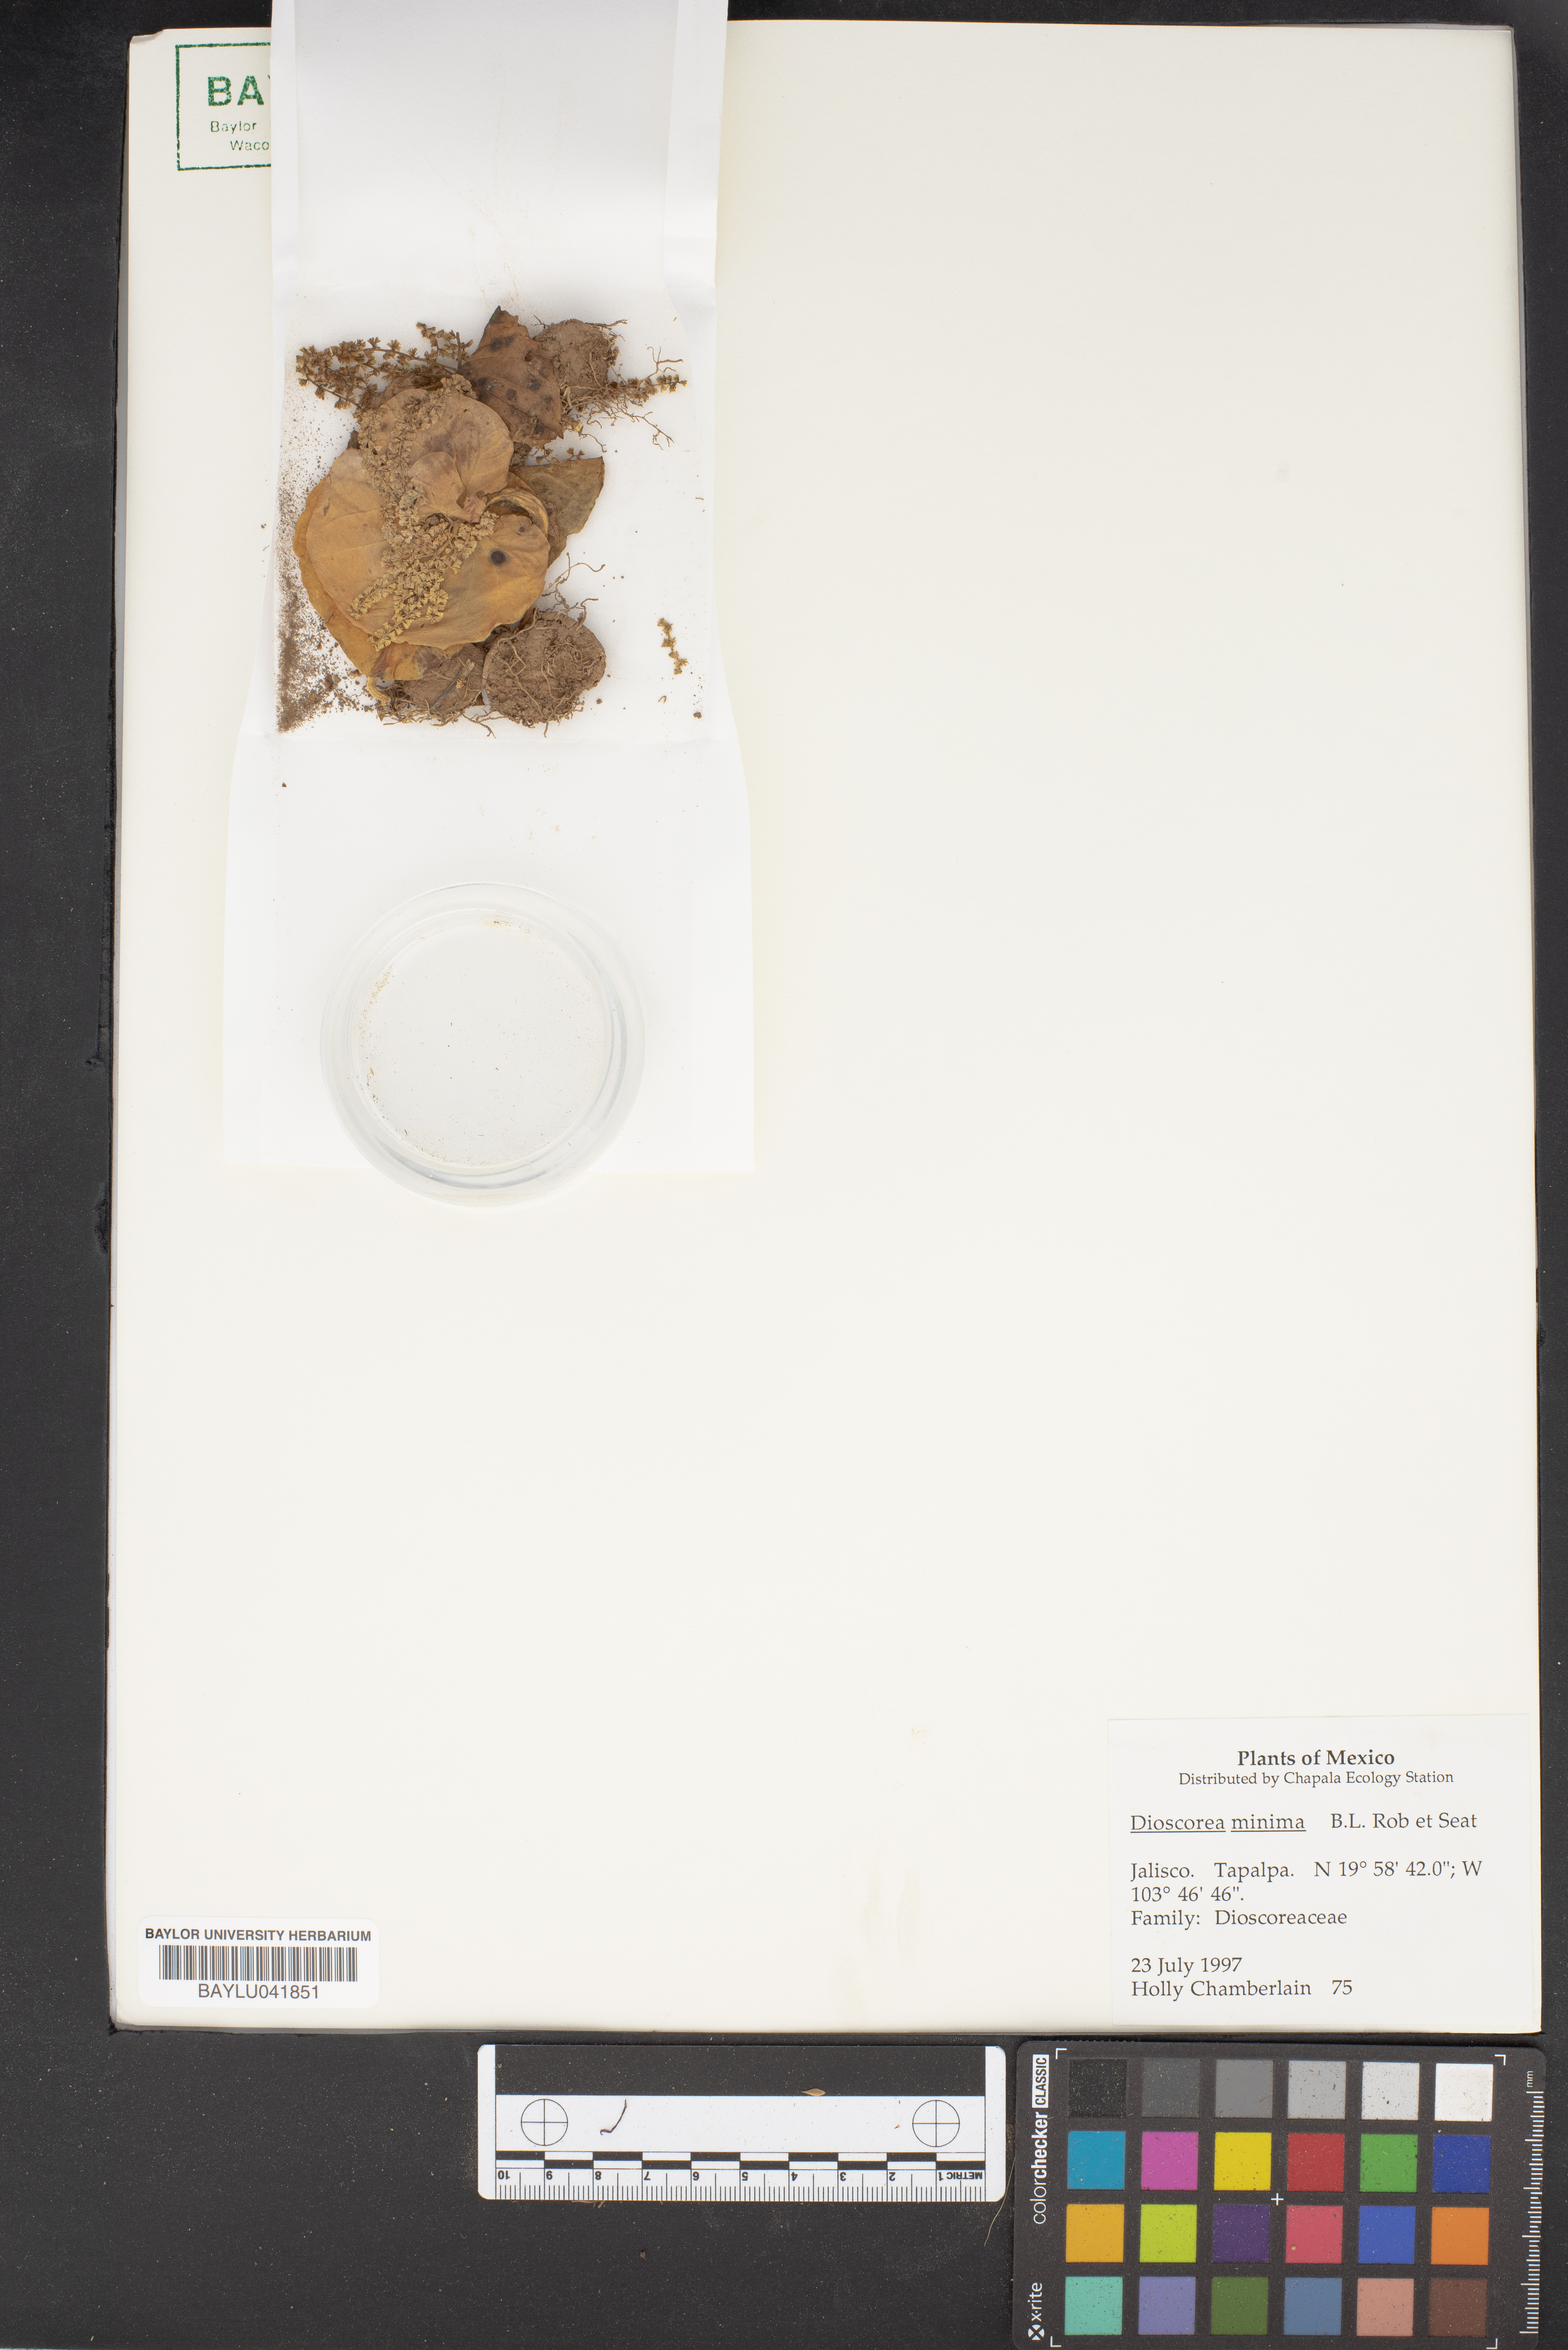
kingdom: Plantae
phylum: Tracheophyta
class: Liliopsida
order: Dioscoreales
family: Dioscoreaceae
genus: Dioscorea
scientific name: Dioscorea minima
